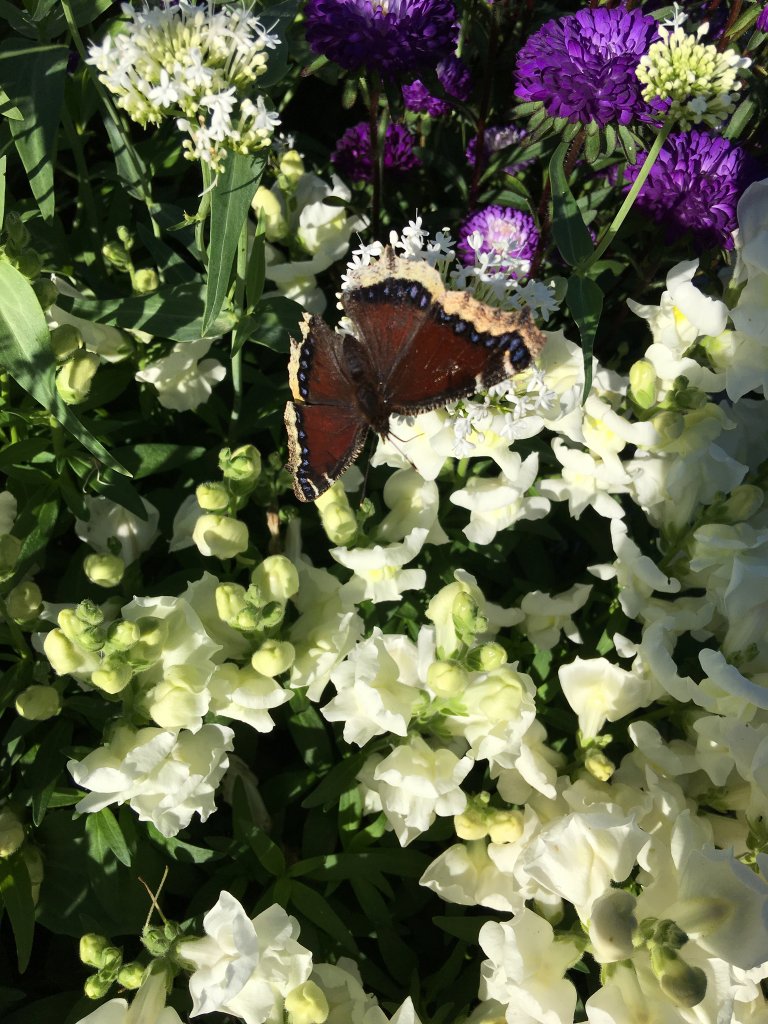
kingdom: Animalia
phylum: Arthropoda
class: Insecta
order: Lepidoptera
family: Nymphalidae
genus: Nymphalis
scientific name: Nymphalis antiopa
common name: Mourning Cloak
